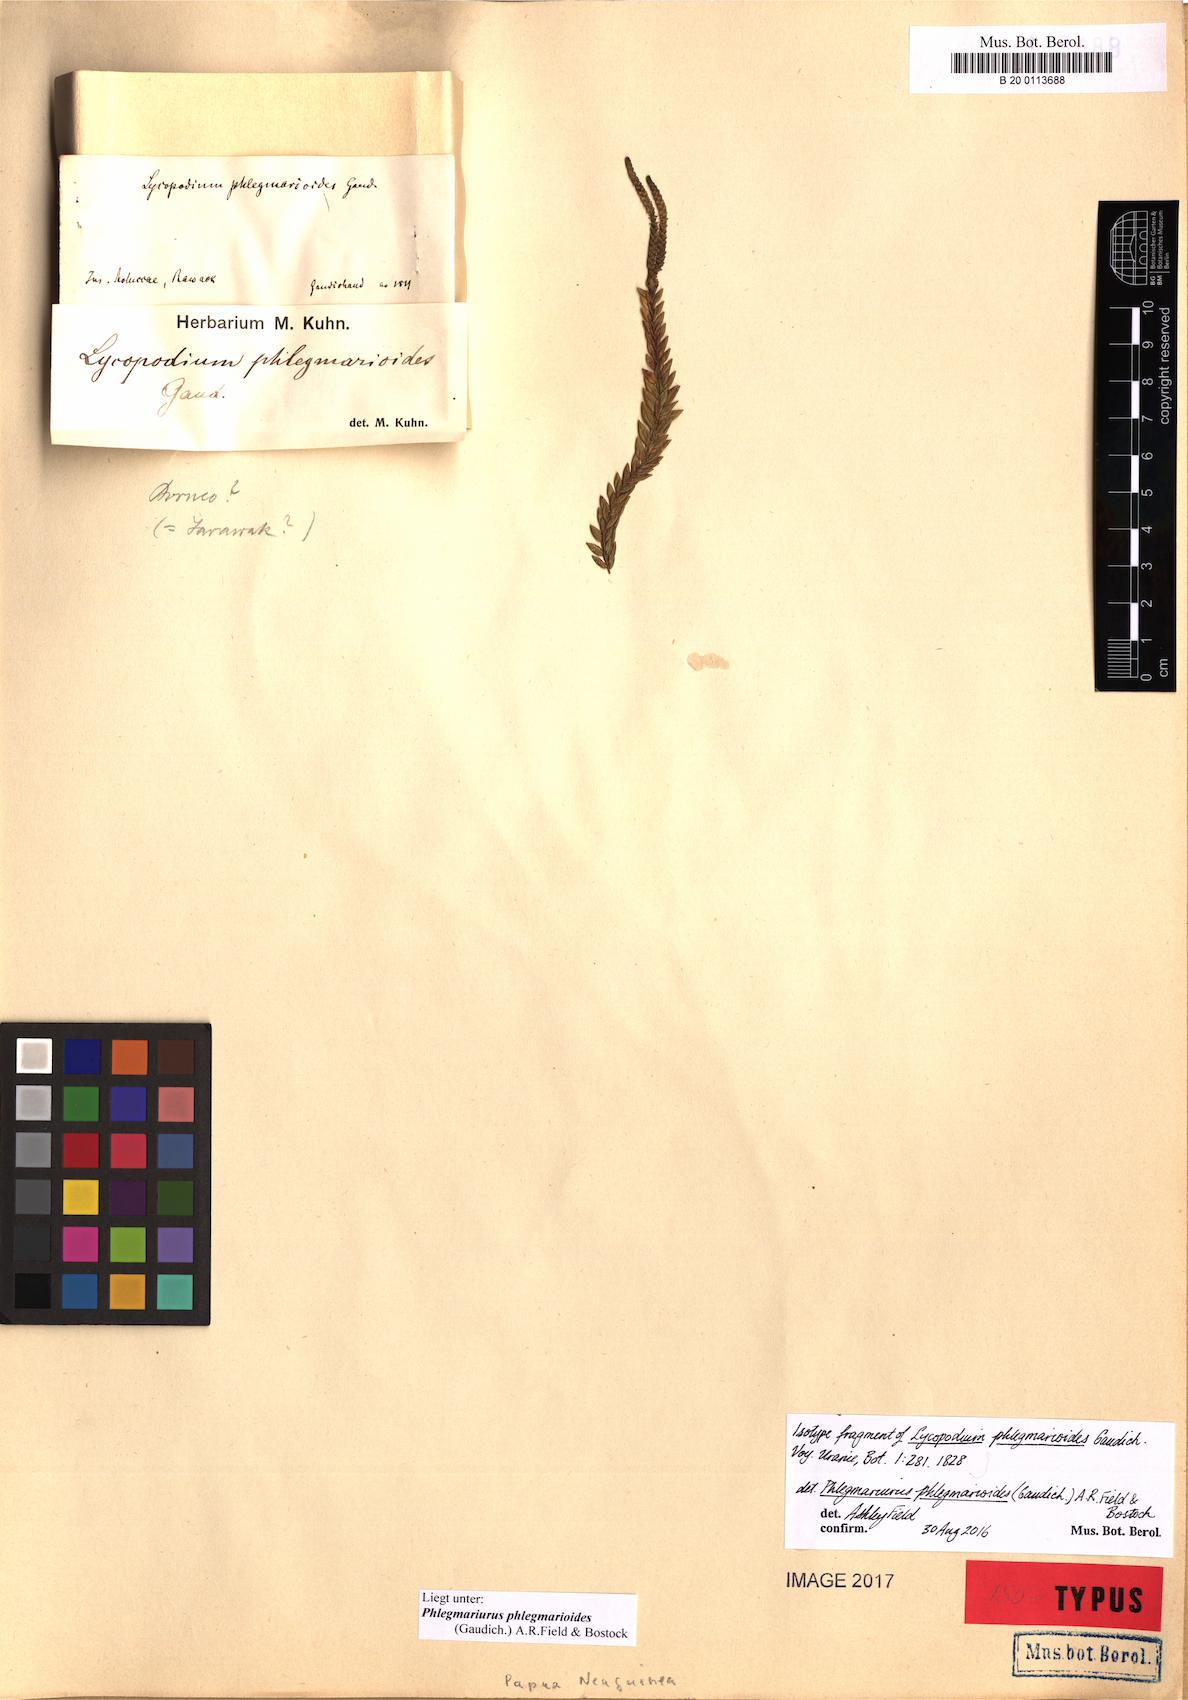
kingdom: Plantae
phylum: Tracheophyta
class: Lycopodiopsida
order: Lycopodiales
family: Lycopodiaceae
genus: Phlegmariurus
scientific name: Phlegmariurus phlegmarioides
